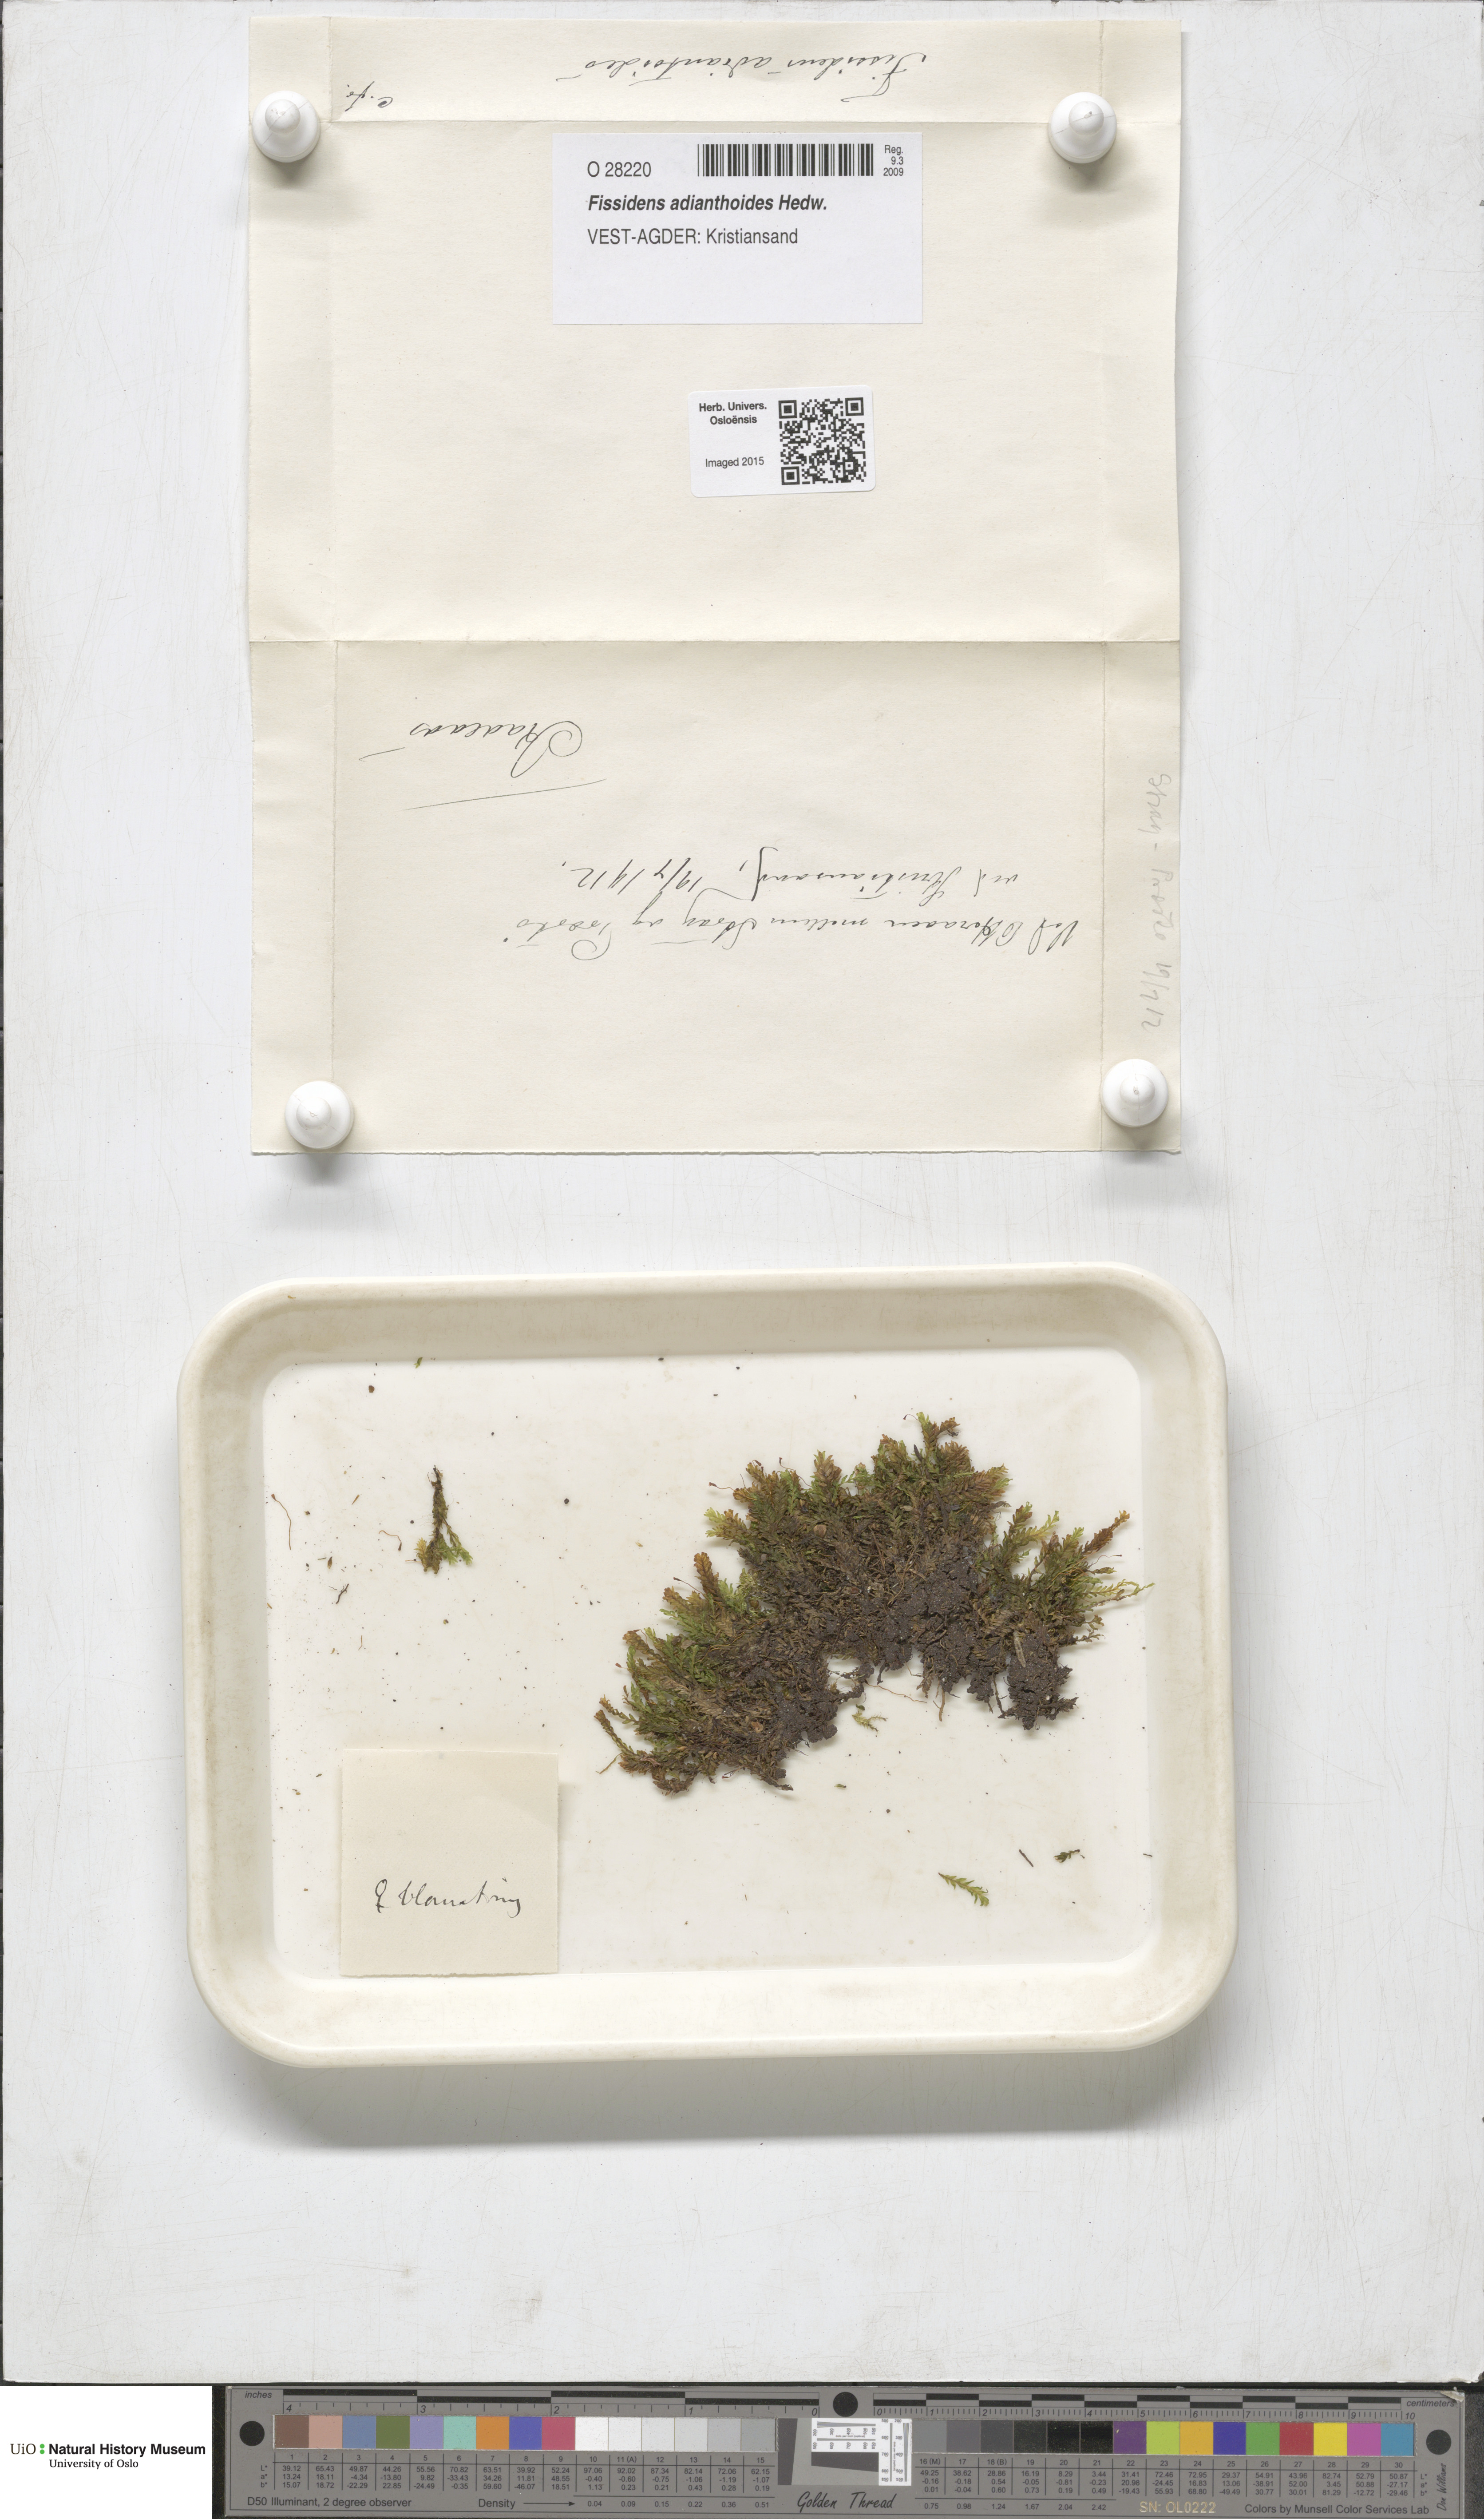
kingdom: Plantae
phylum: Bryophyta
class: Bryopsida
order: Dicranales
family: Fissidentaceae
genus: Fissidens
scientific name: Fissidens adianthoides
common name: Maidenhair pocket moss
